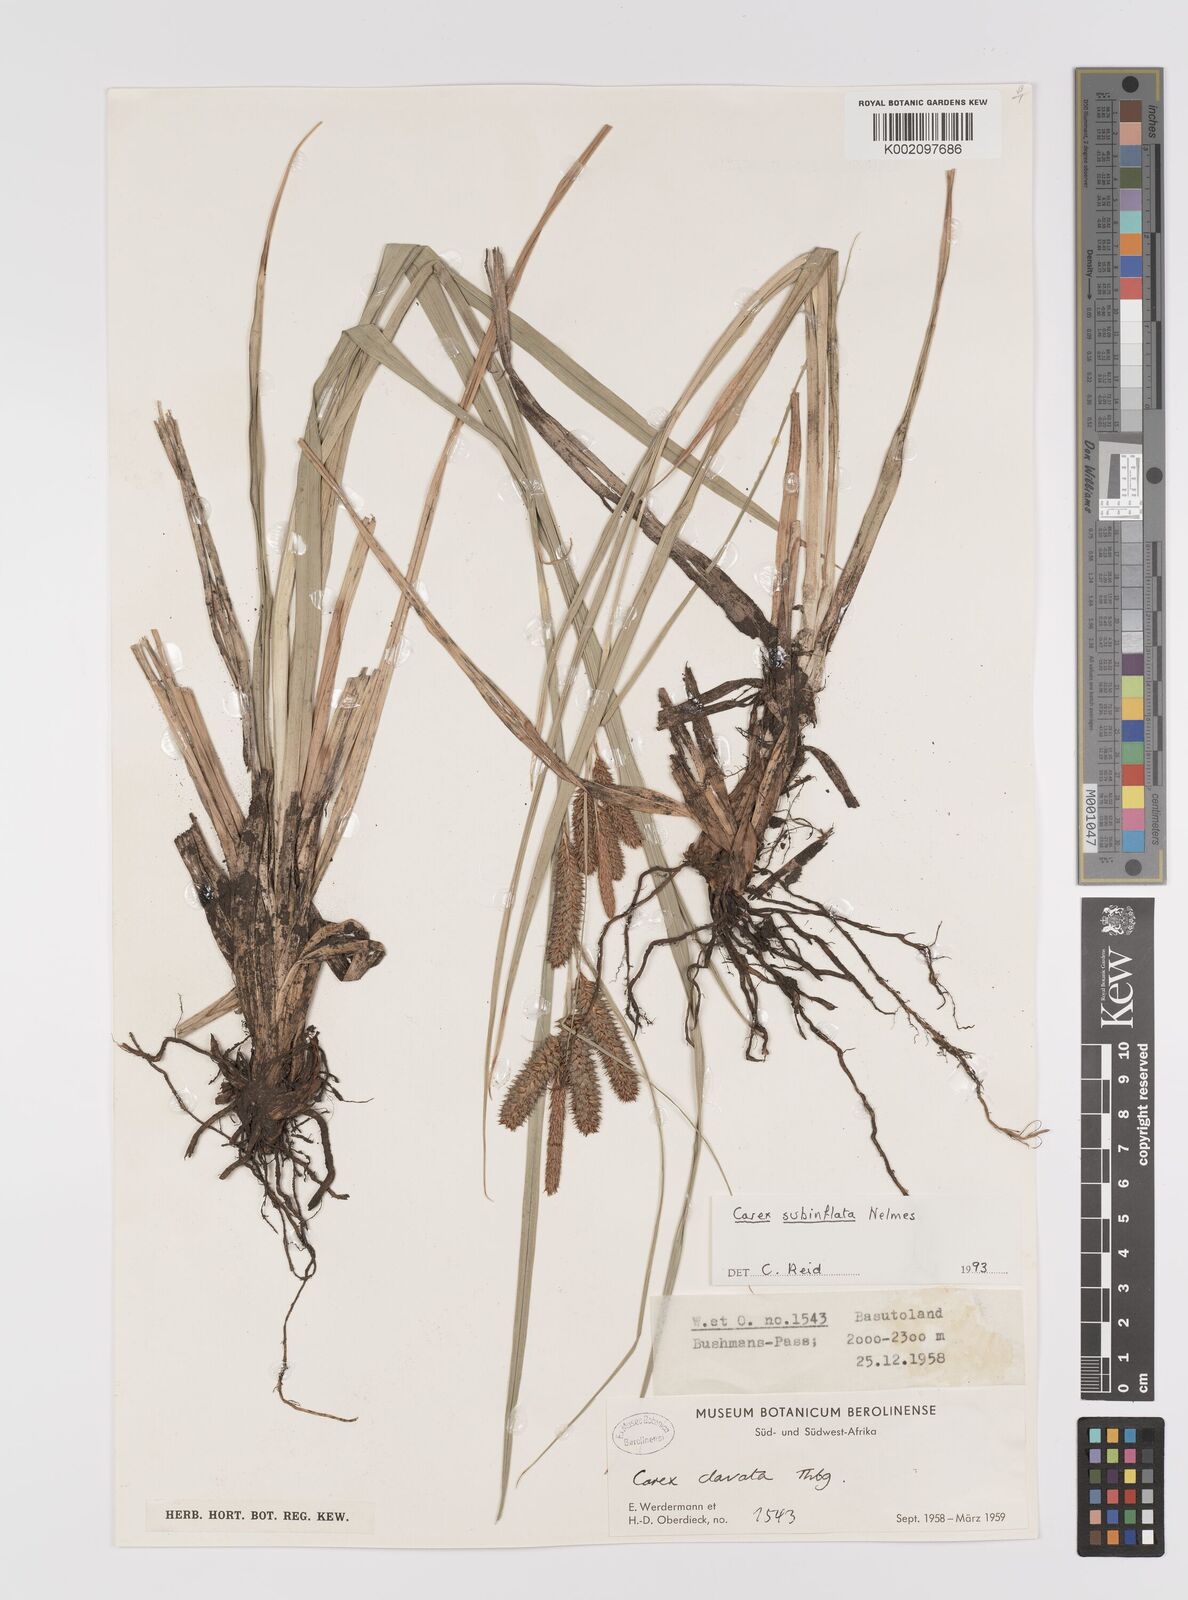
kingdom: Plantae
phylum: Tracheophyta
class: Liliopsida
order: Poales
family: Cyperaceae
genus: Carex
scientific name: Carex subinflata
